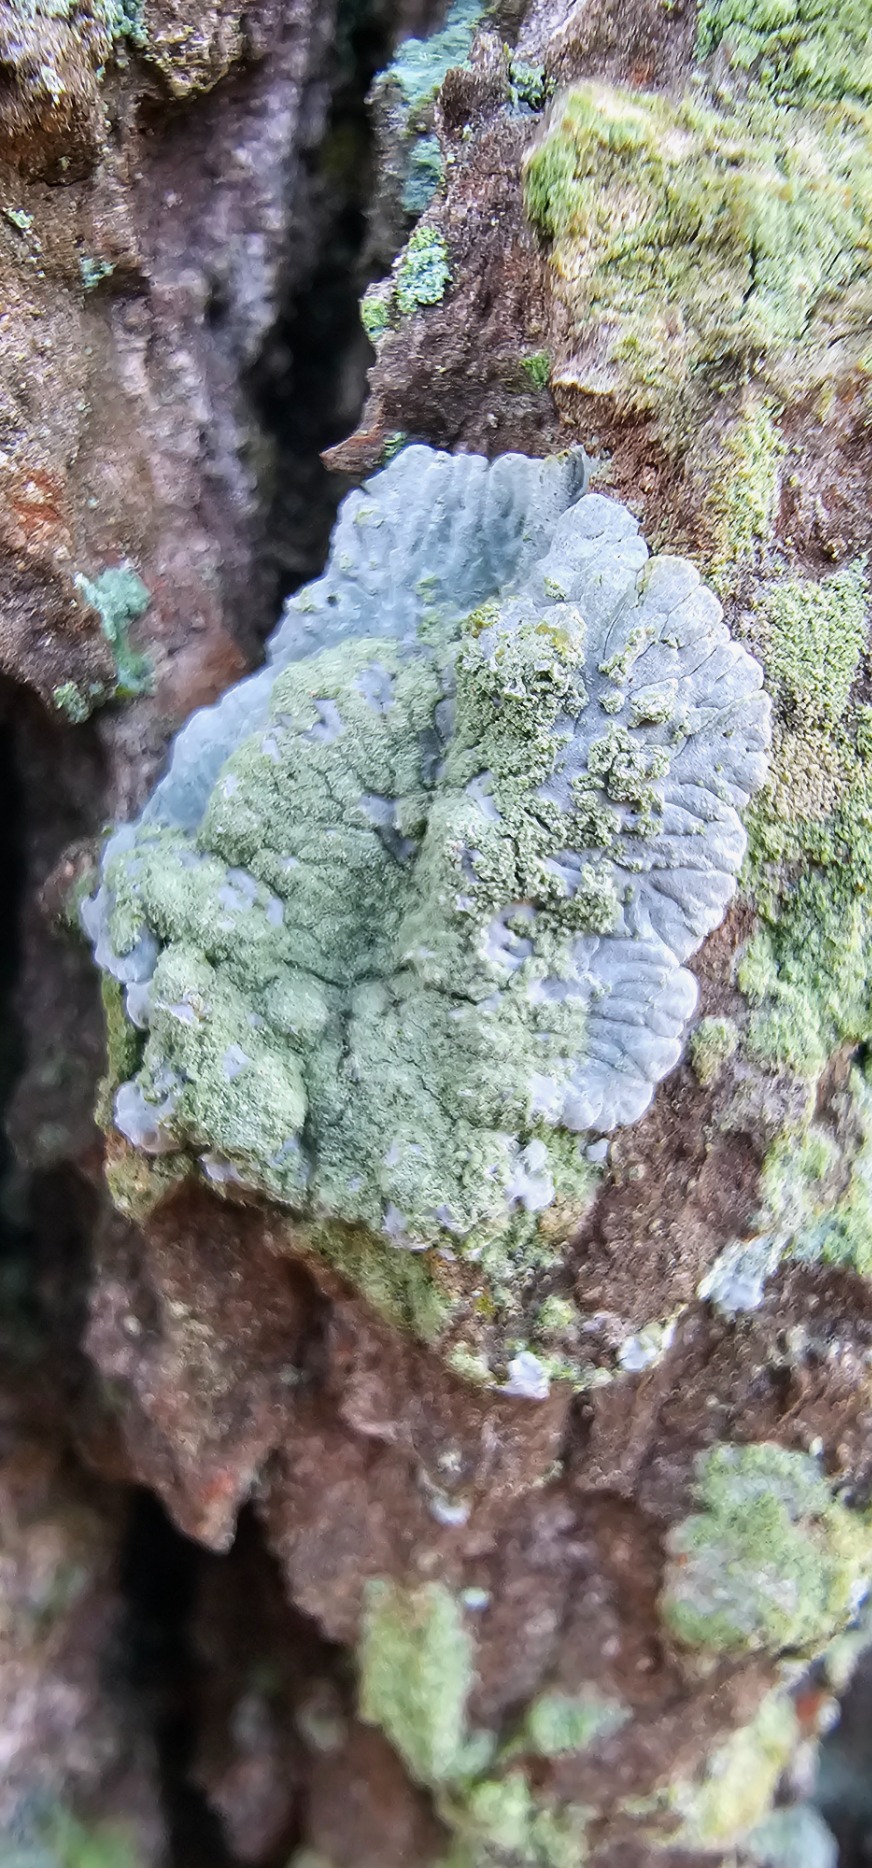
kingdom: Fungi
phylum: Ascomycota
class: Lecanoromycetes
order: Caliciales
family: Caliciaceae
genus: Diploicia
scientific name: Diploicia canescens
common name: Grå støvrosetlav
